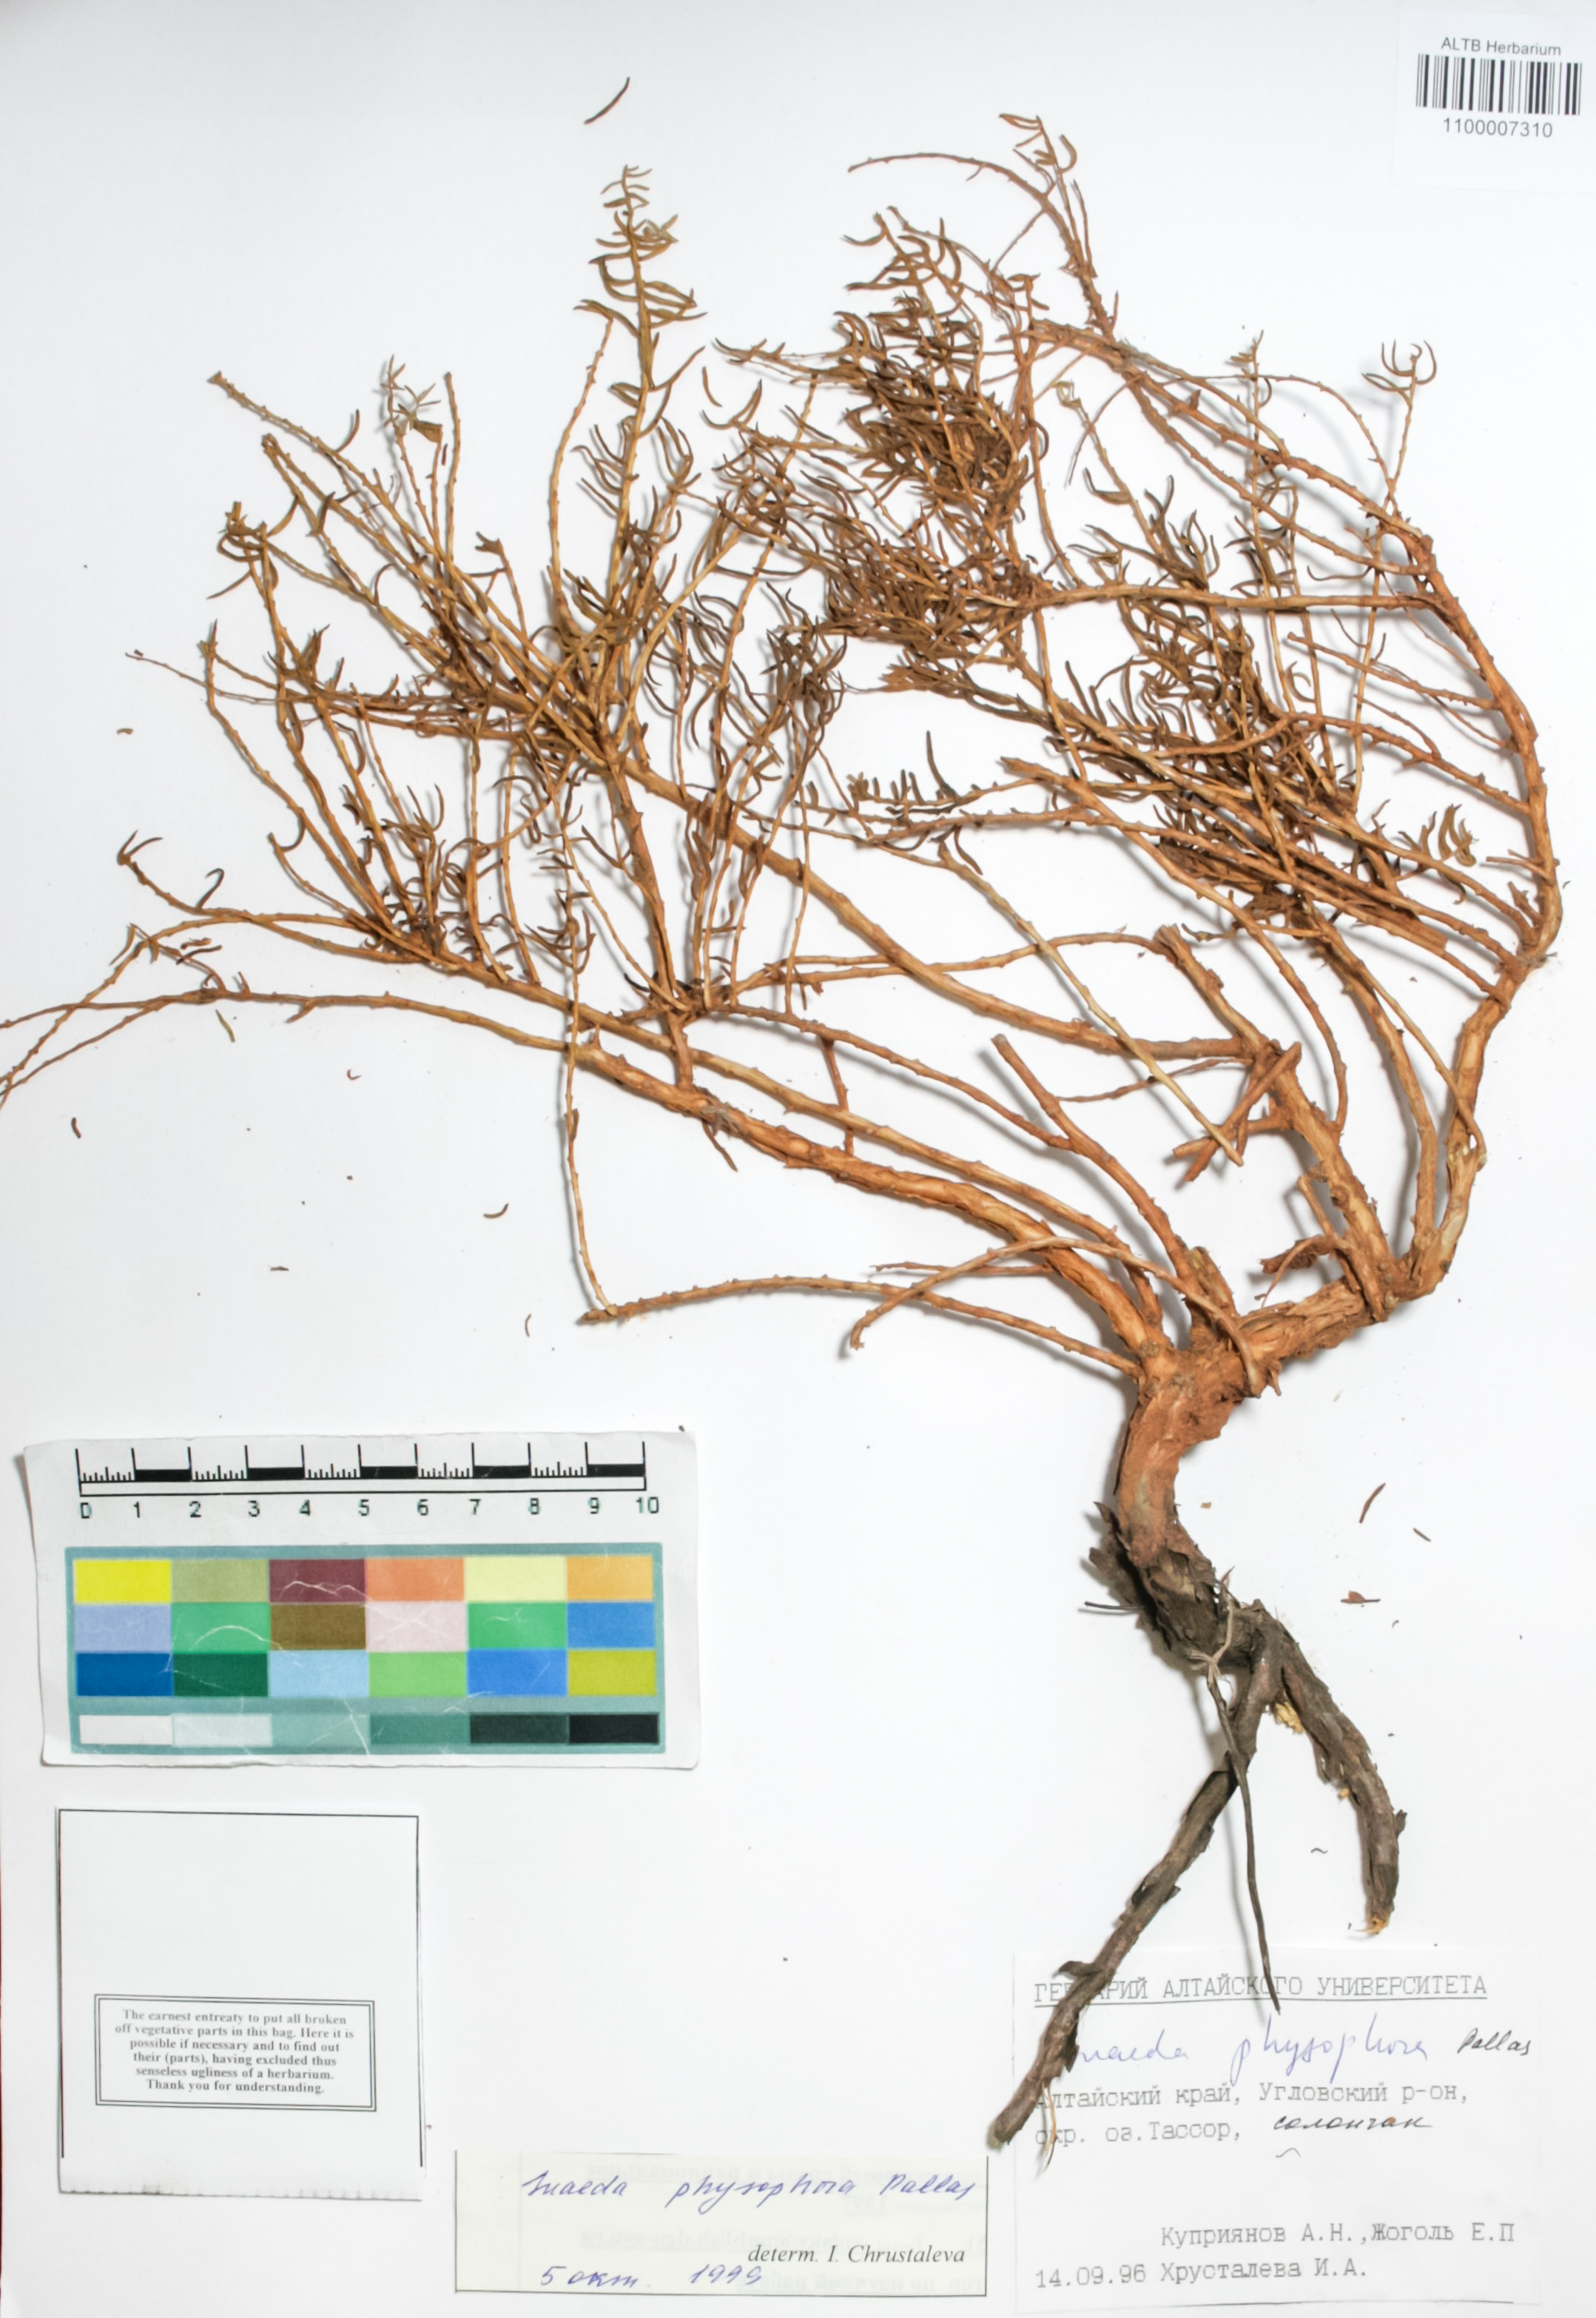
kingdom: Plantae
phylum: Tracheophyta
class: Magnoliopsida
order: Caryophyllales
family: Amaranthaceae
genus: Suaeda
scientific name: Suaeda physophora
